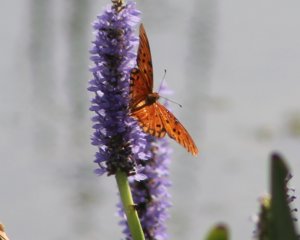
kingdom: Animalia
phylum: Arthropoda
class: Insecta
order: Lepidoptera
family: Nymphalidae
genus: Dione
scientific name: Dione vanillae
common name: Gulf Fritillary
